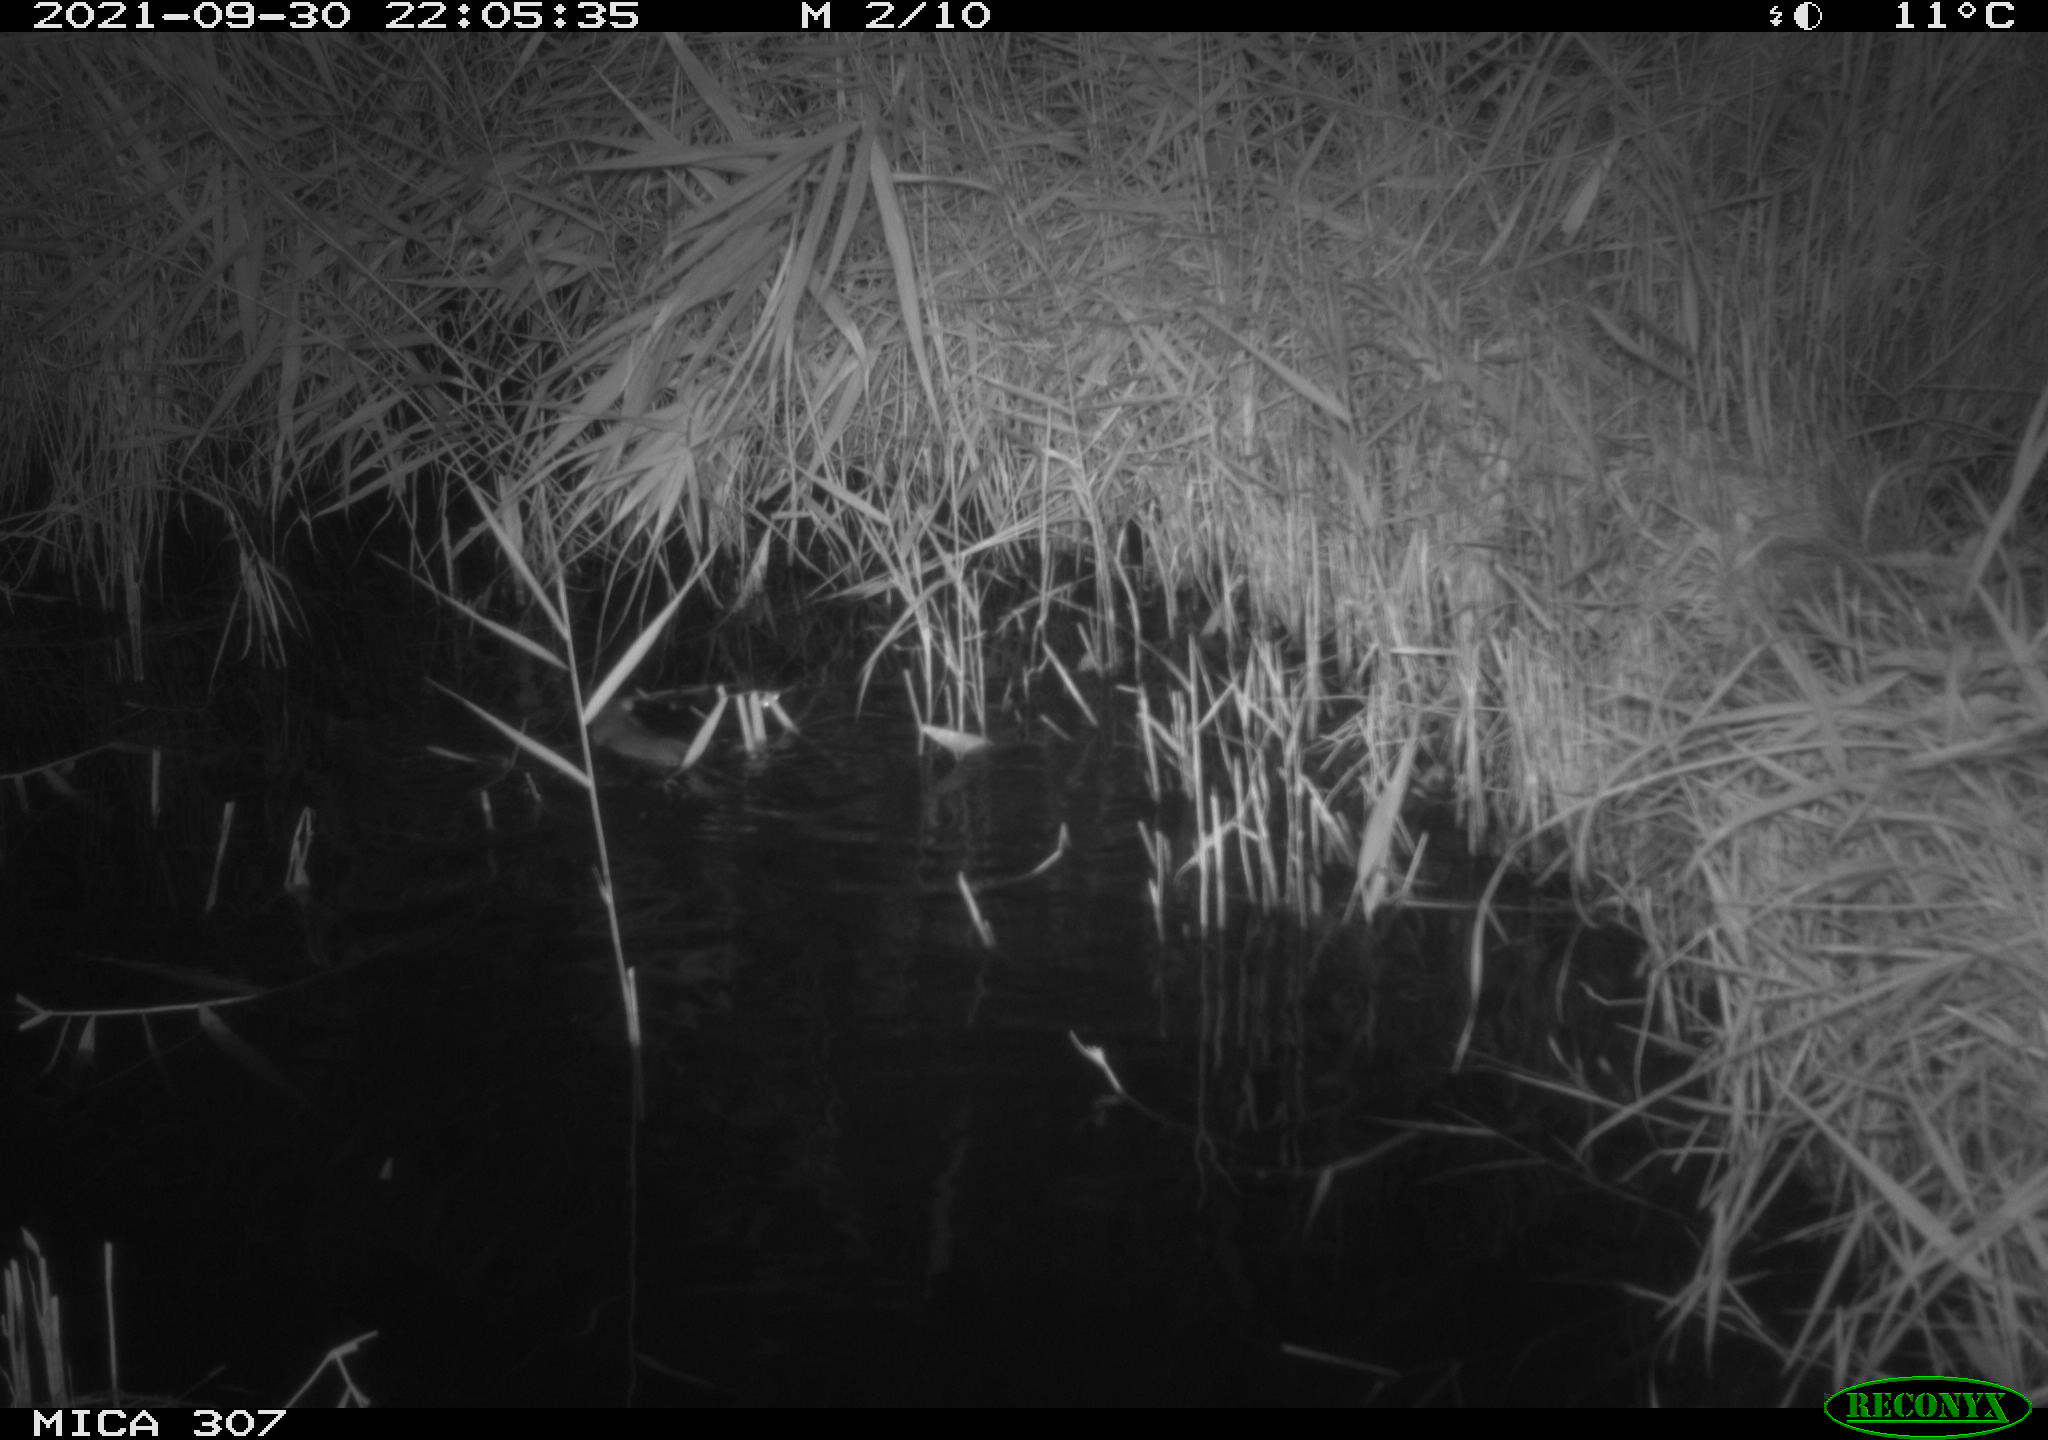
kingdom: Animalia
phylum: Chordata
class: Mammalia
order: Rodentia
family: Muridae
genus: Rattus
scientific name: Rattus norvegicus
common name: Brown rat
